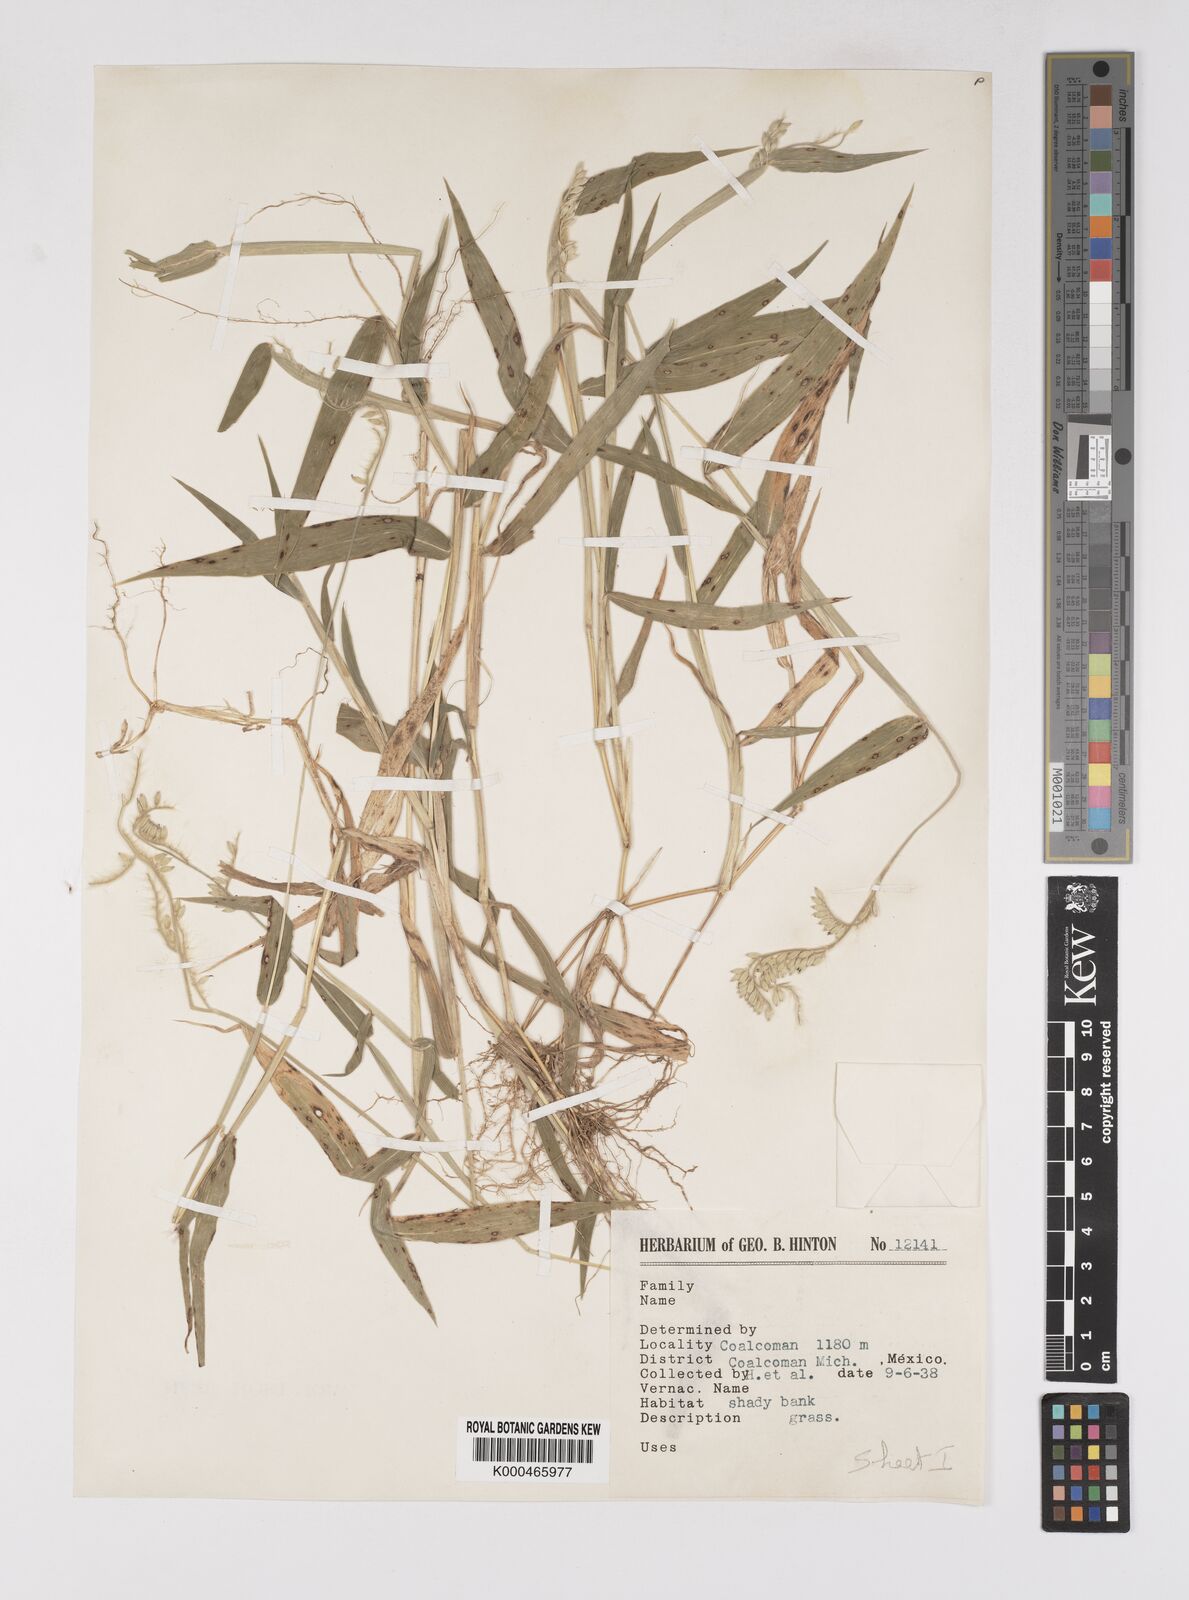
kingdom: Plantae
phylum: Tracheophyta
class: Liliopsida
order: Poales
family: Poaceae
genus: Eriochloa
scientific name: Eriochloa nelsonii
